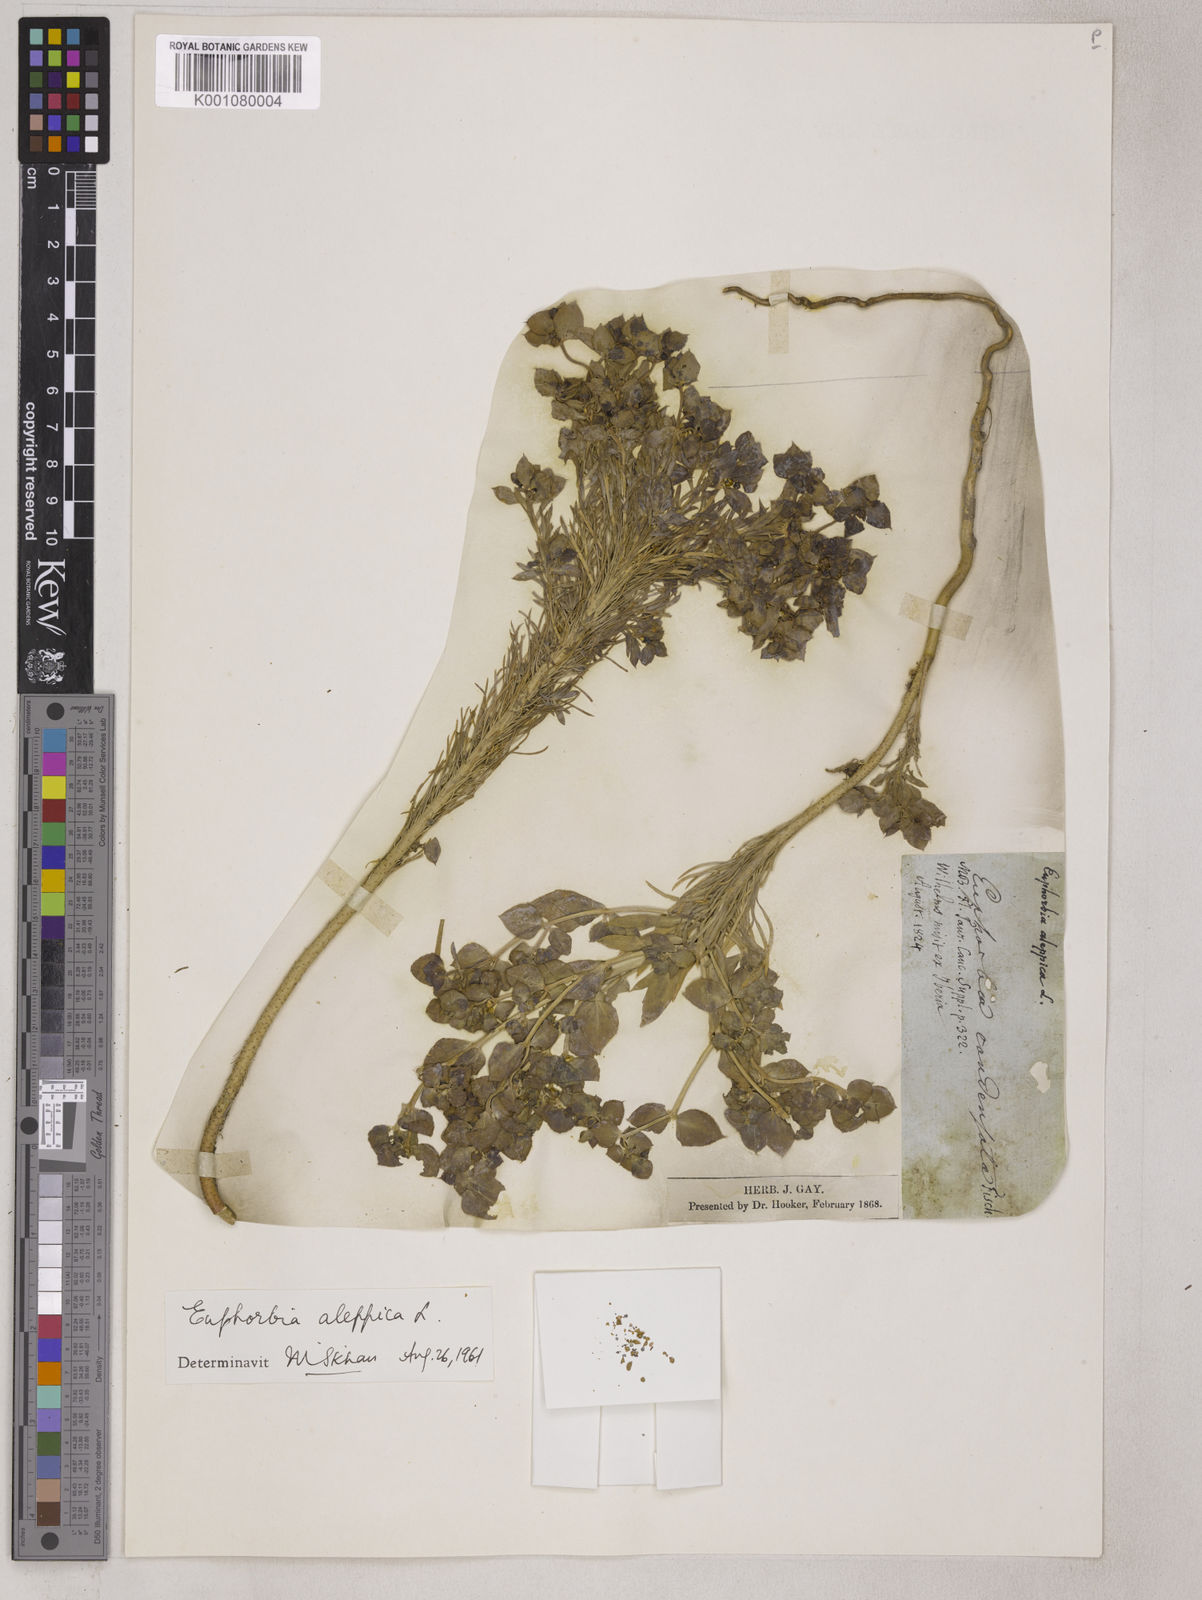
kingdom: Plantae
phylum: Tracheophyta
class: Magnoliopsida
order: Malpighiales
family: Euphorbiaceae
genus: Euphorbia
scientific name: Euphorbia aleppica
